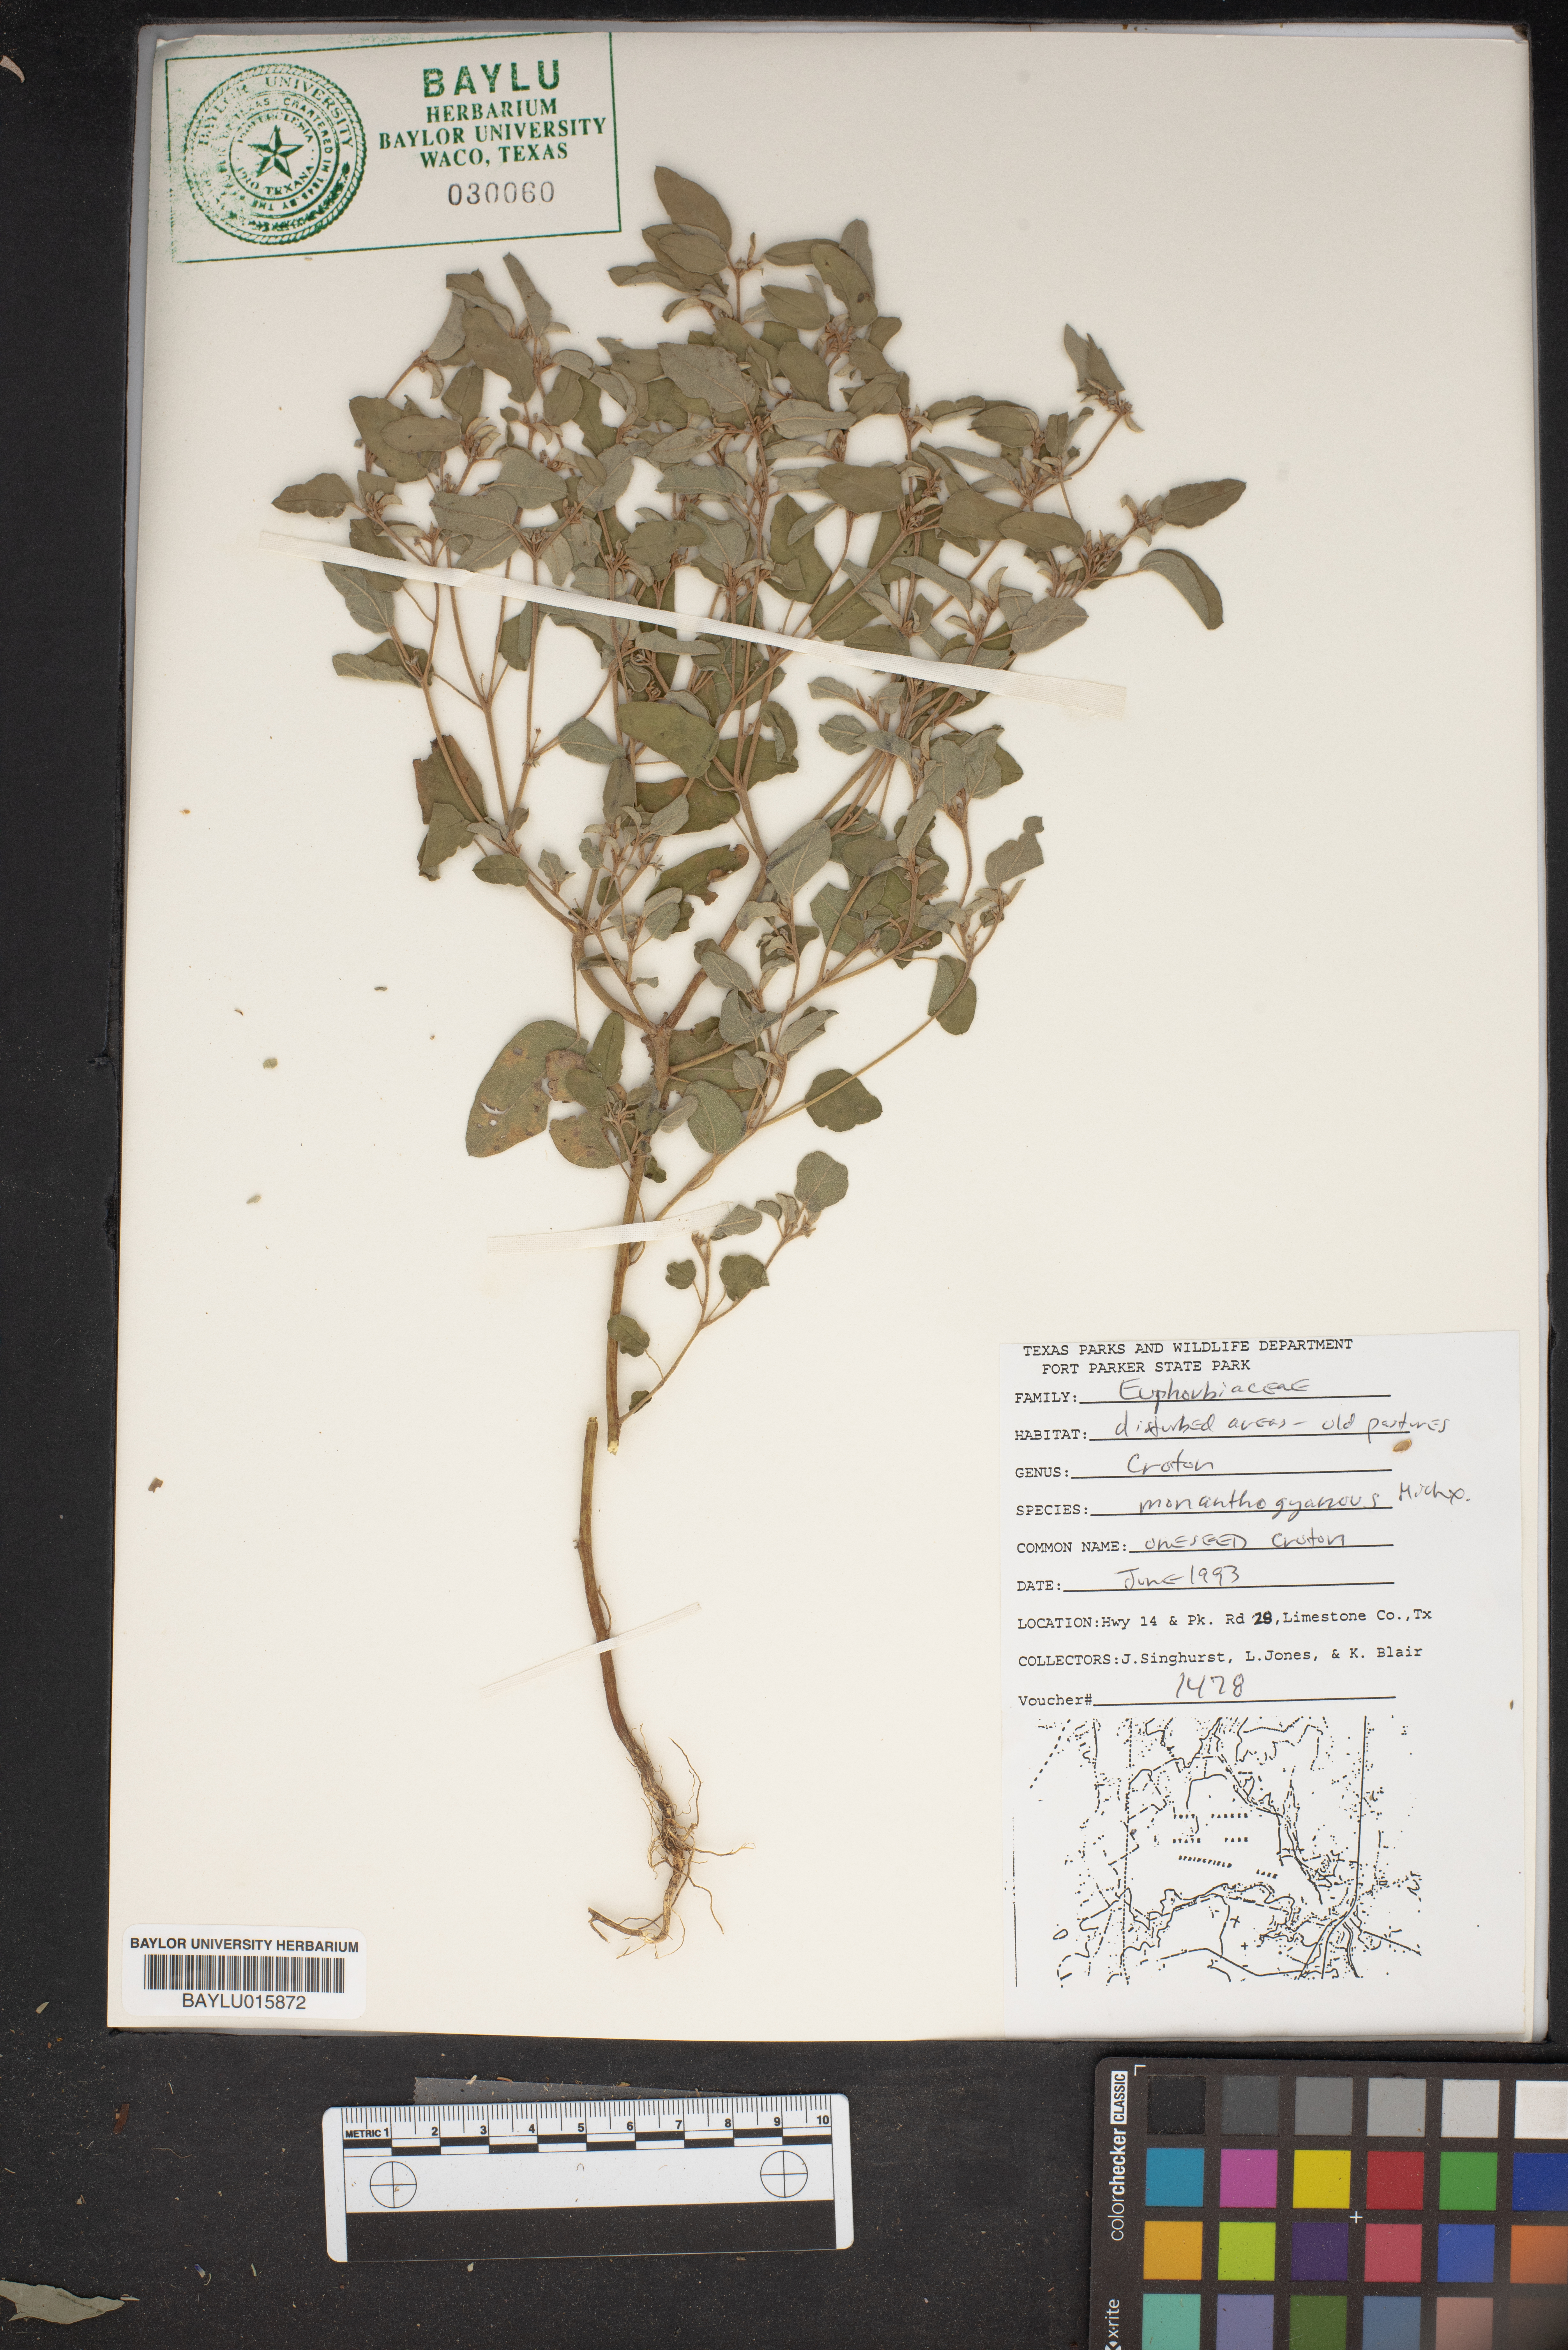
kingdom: Plantae
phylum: Tracheophyta
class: Magnoliopsida
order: Malpighiales
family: Euphorbiaceae
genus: Croton
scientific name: Croton monanthogynus
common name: One-seed croton
